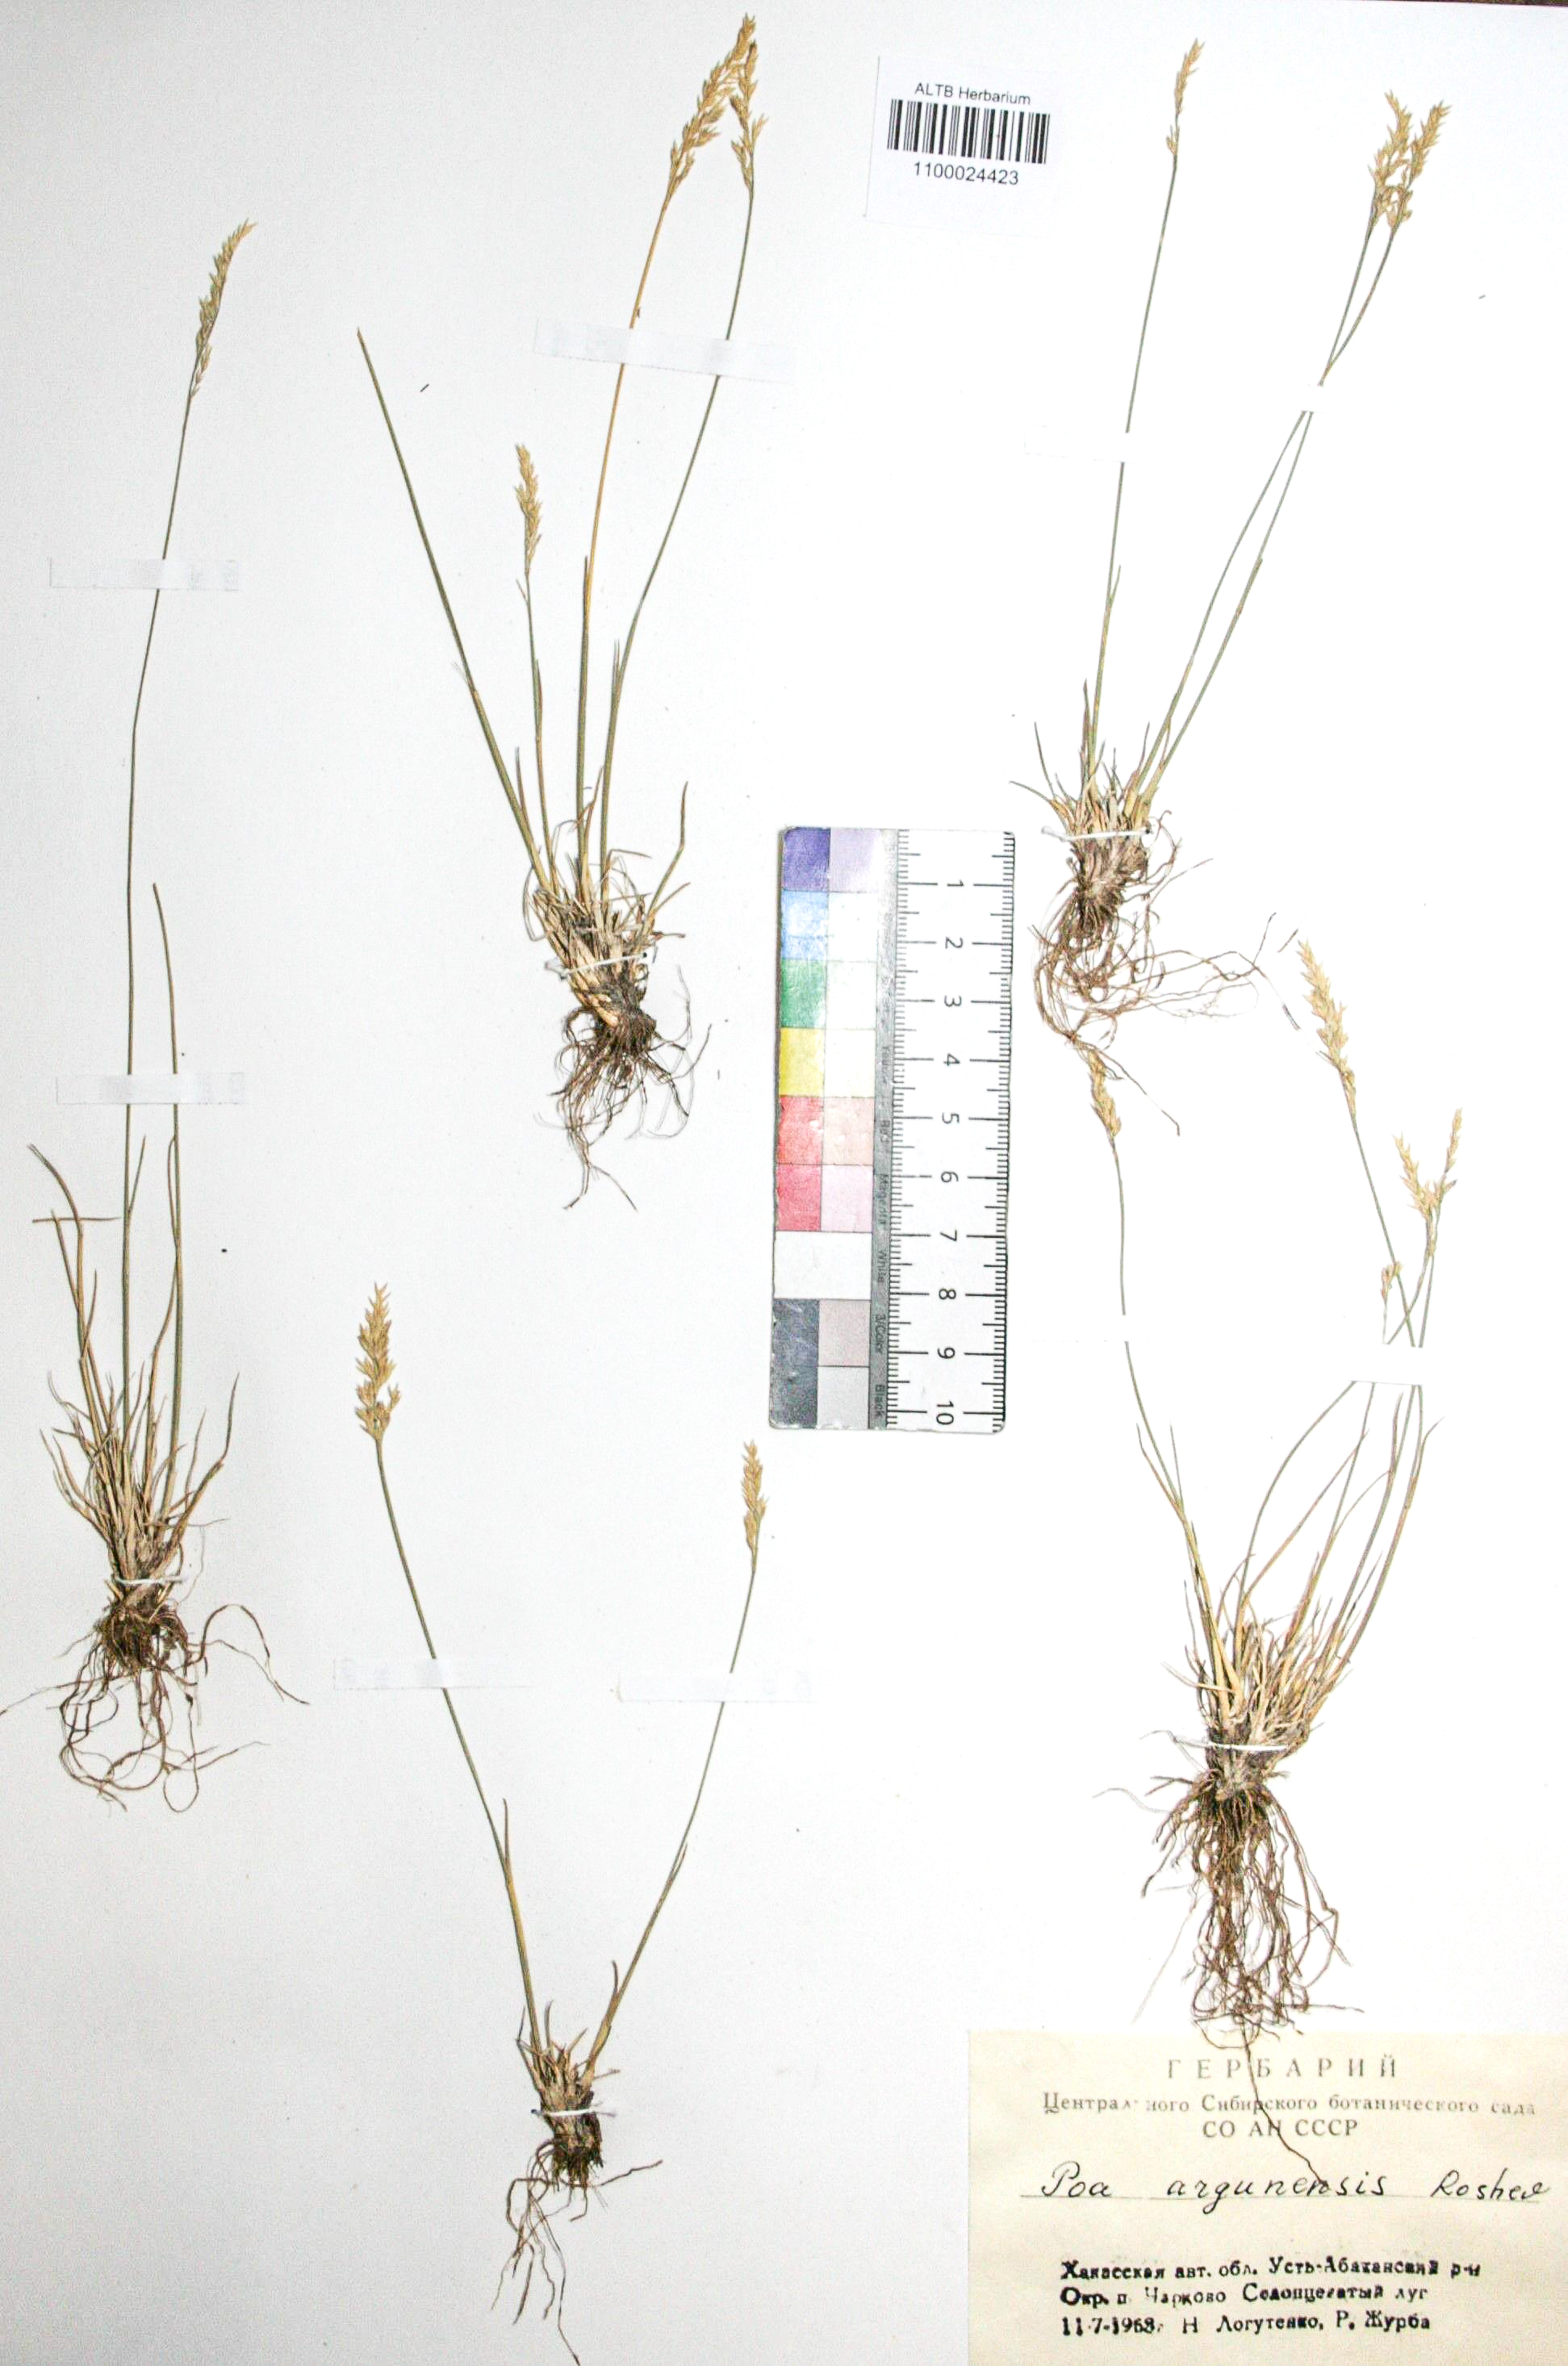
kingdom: Plantae
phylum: Tracheophyta
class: Liliopsida
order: Poales
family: Poaceae
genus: Poa
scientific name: Poa attenuata
